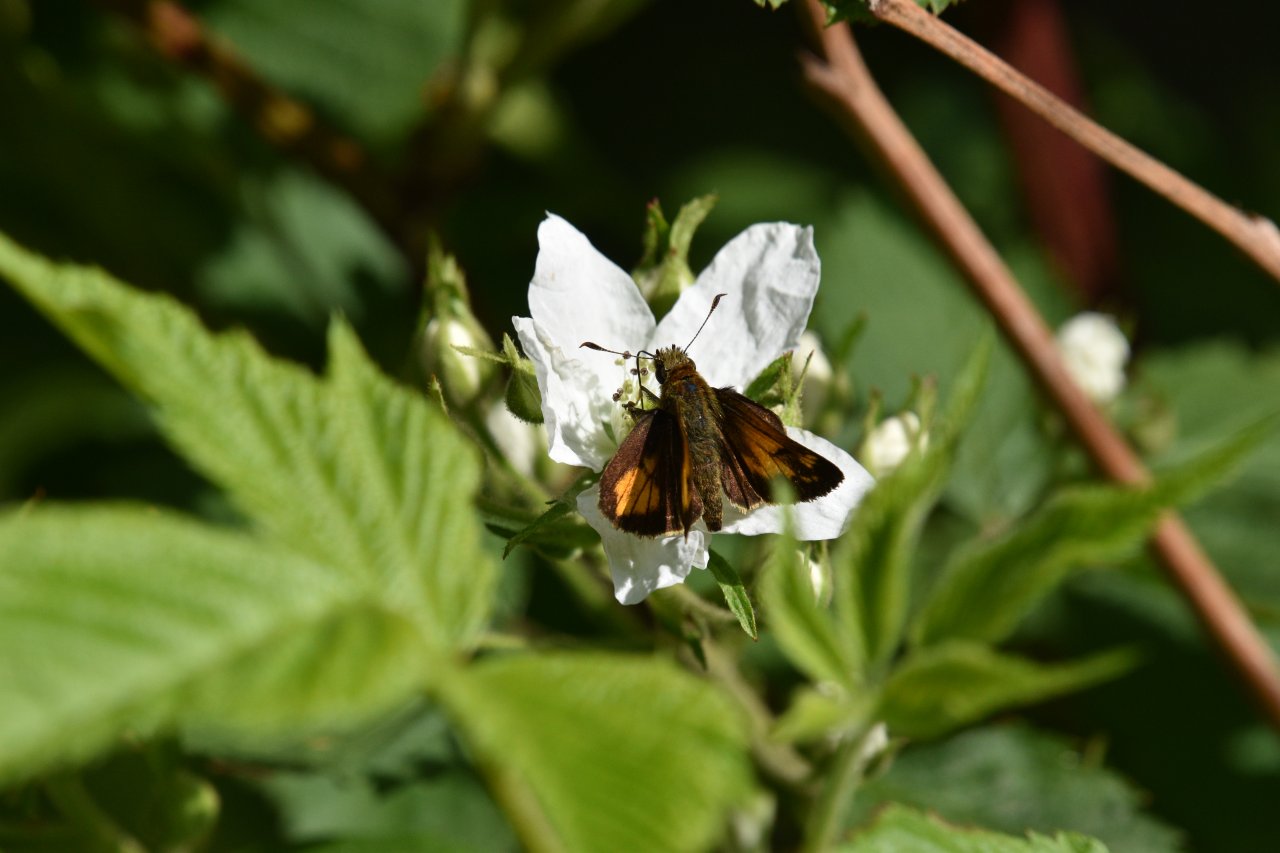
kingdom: Animalia
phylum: Arthropoda
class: Insecta
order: Lepidoptera
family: Hesperiidae
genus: Lon
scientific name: Lon hobomok
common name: Hobomok Skipper
